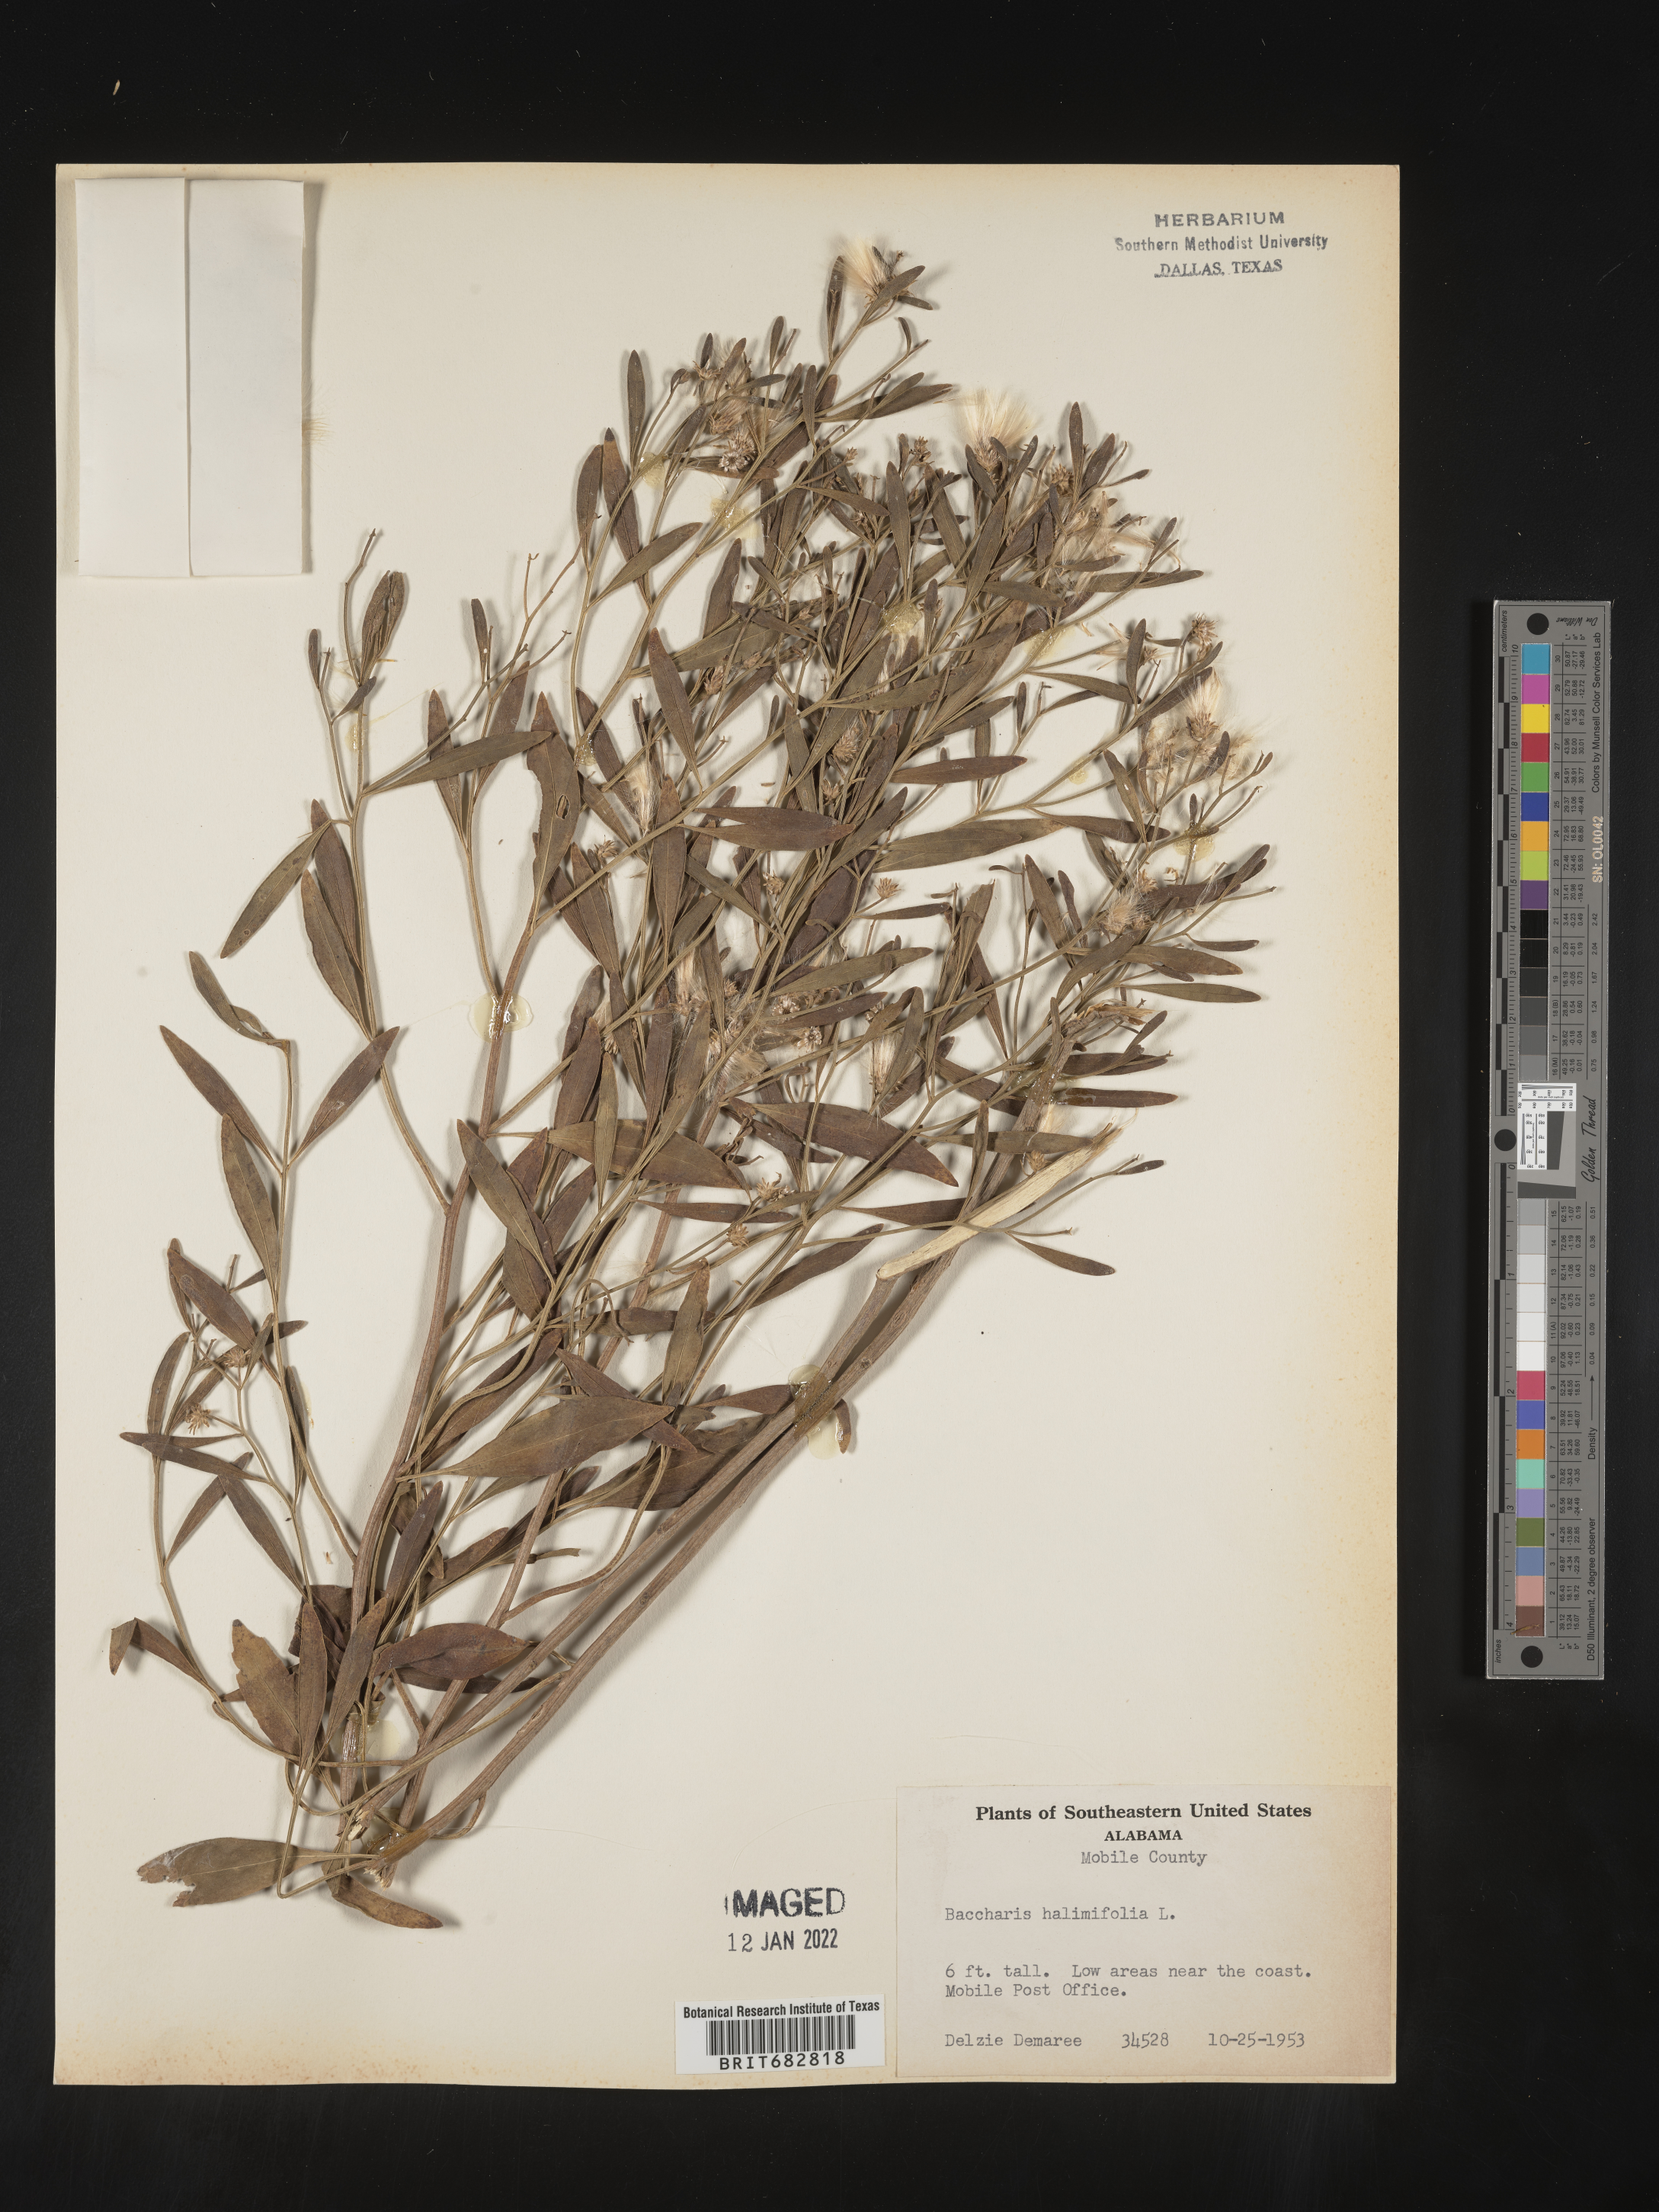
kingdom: Plantae
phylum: Tracheophyta
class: Magnoliopsida
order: Asterales
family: Asteraceae
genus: Nidorella
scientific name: Nidorella ivifolia
